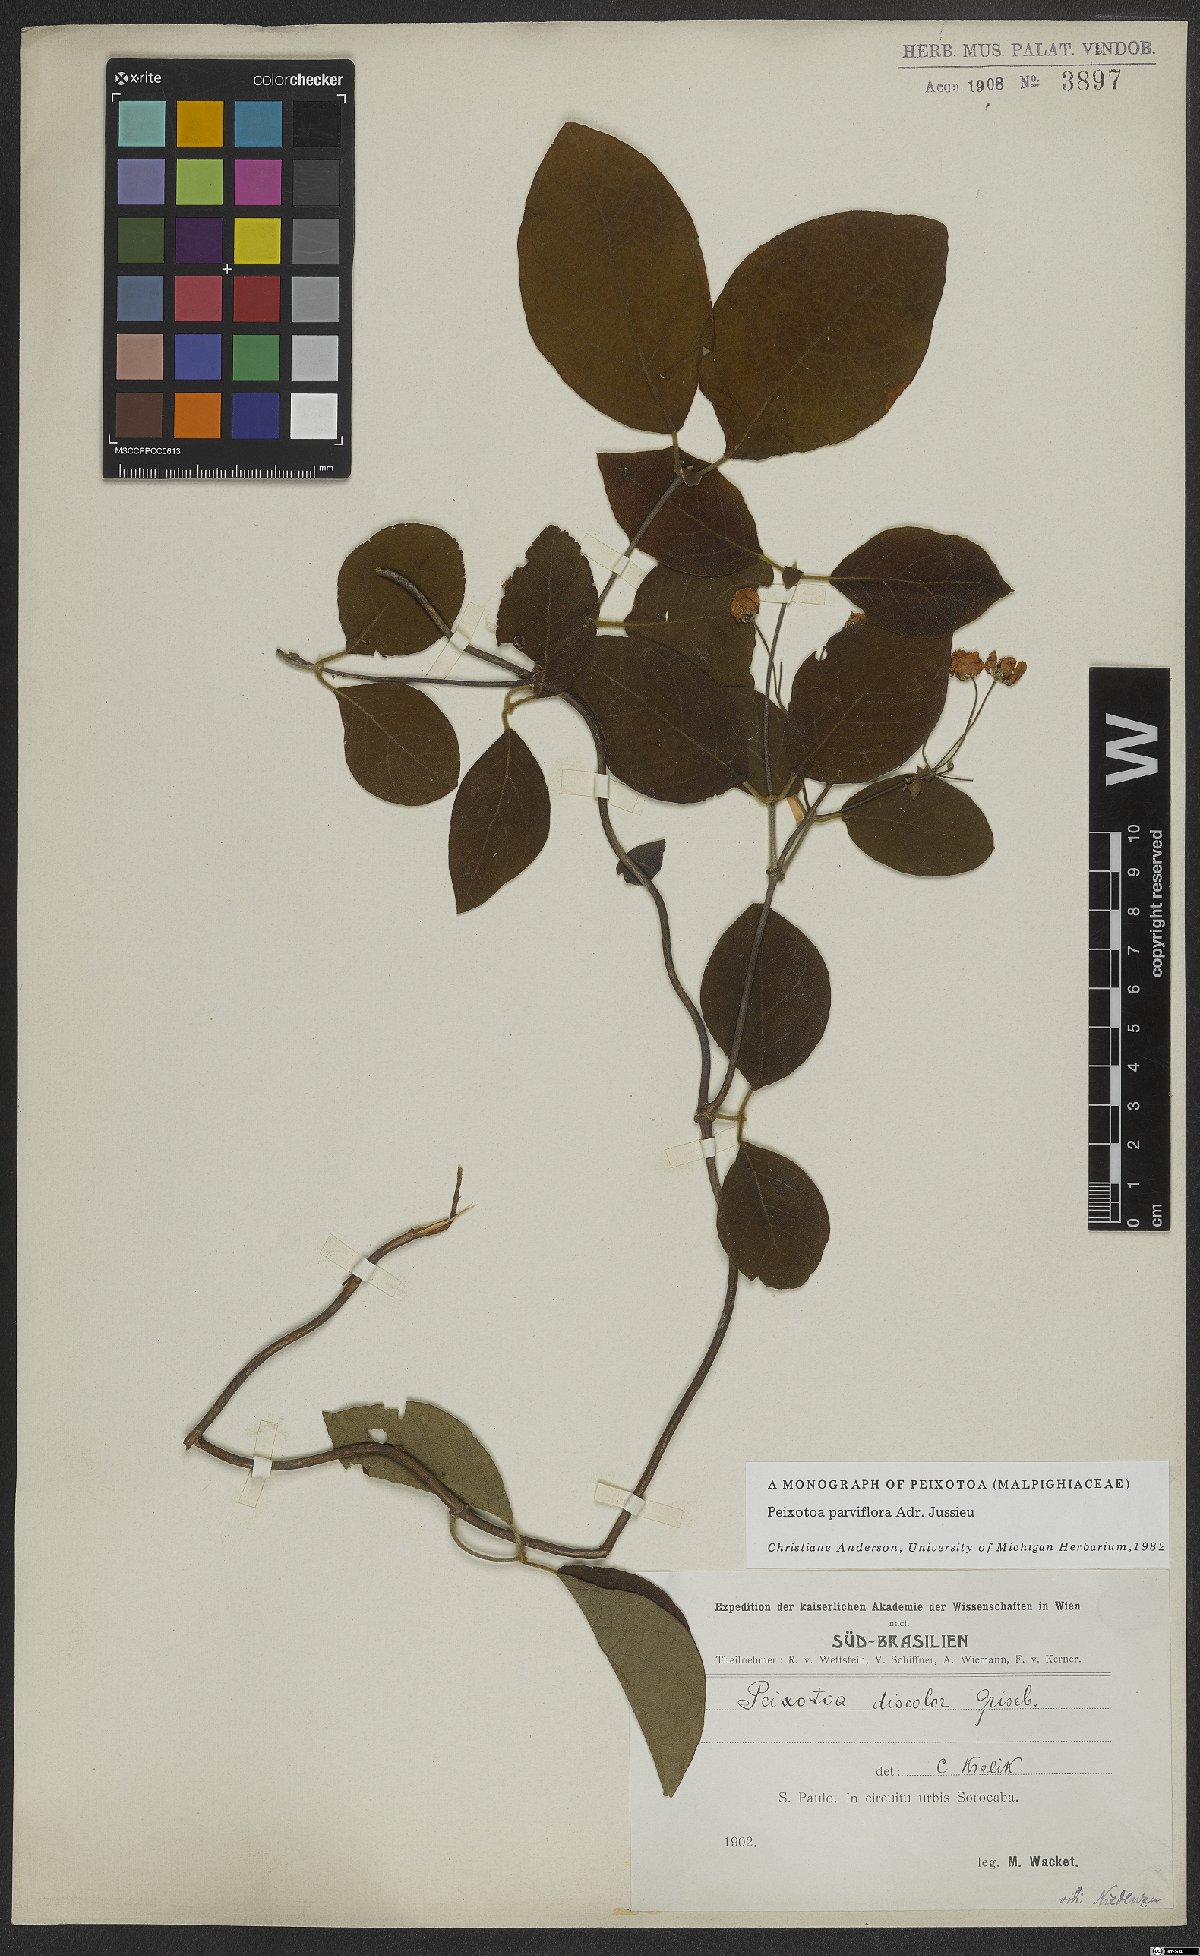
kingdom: Plantae
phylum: Tracheophyta
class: Magnoliopsida
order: Malpighiales
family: Malpighiaceae
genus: Peixotoa
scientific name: Peixotoa parviflora
